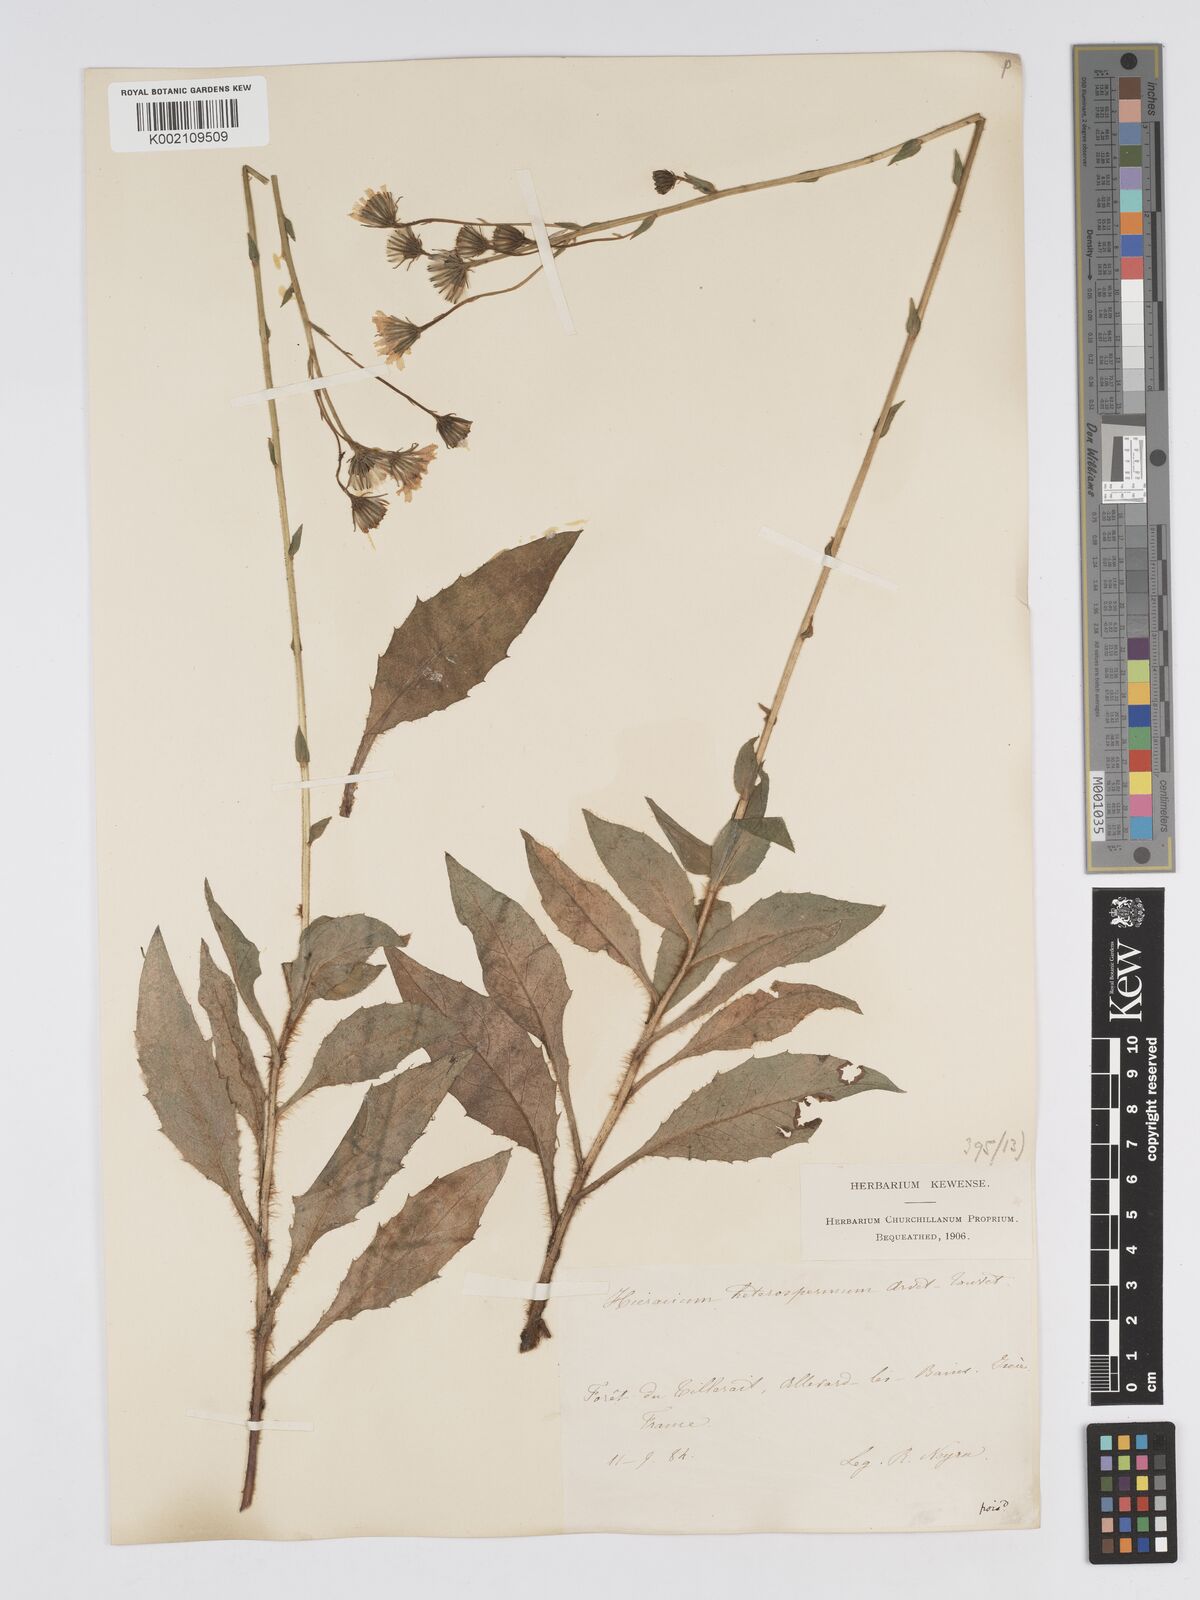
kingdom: Plantae
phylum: Tracheophyta
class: Magnoliopsida
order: Asterales
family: Asteraceae
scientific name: Asteraceae
